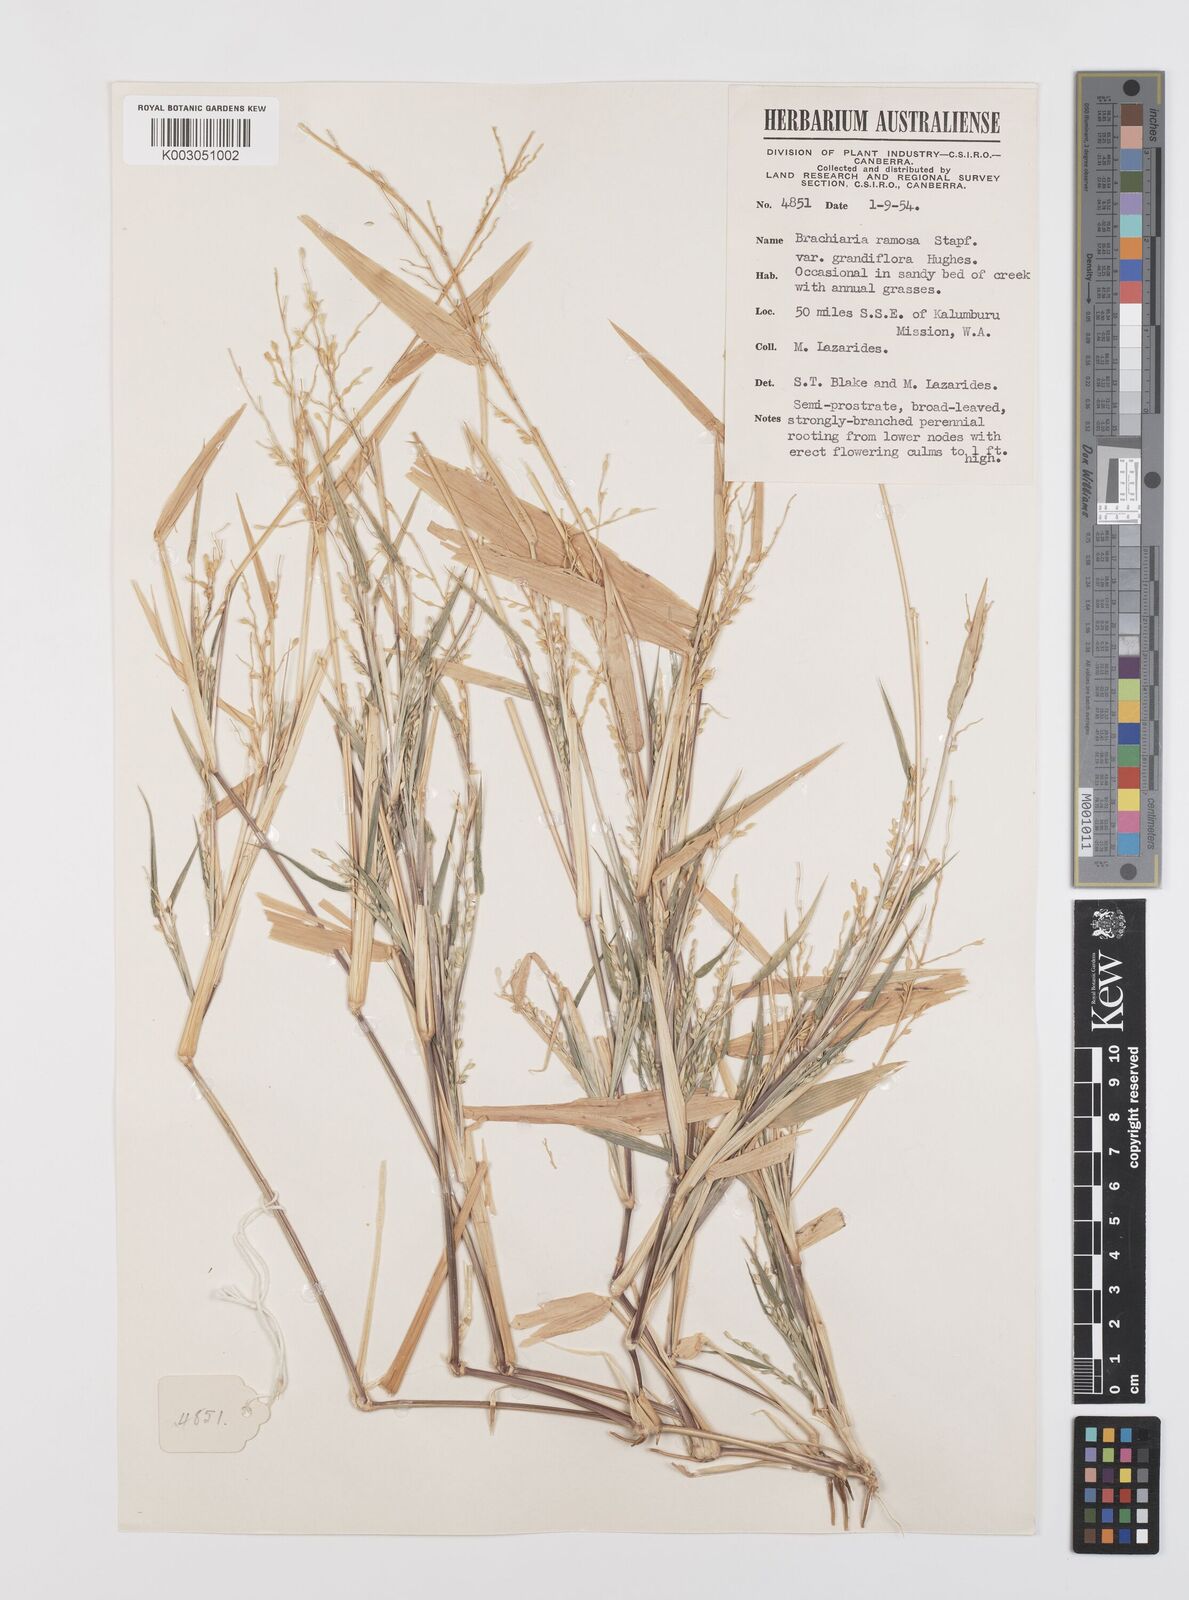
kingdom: Plantae
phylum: Tracheophyta
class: Liliopsida
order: Poales
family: Poaceae
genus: Urochloa
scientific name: Urochloa pubigera
